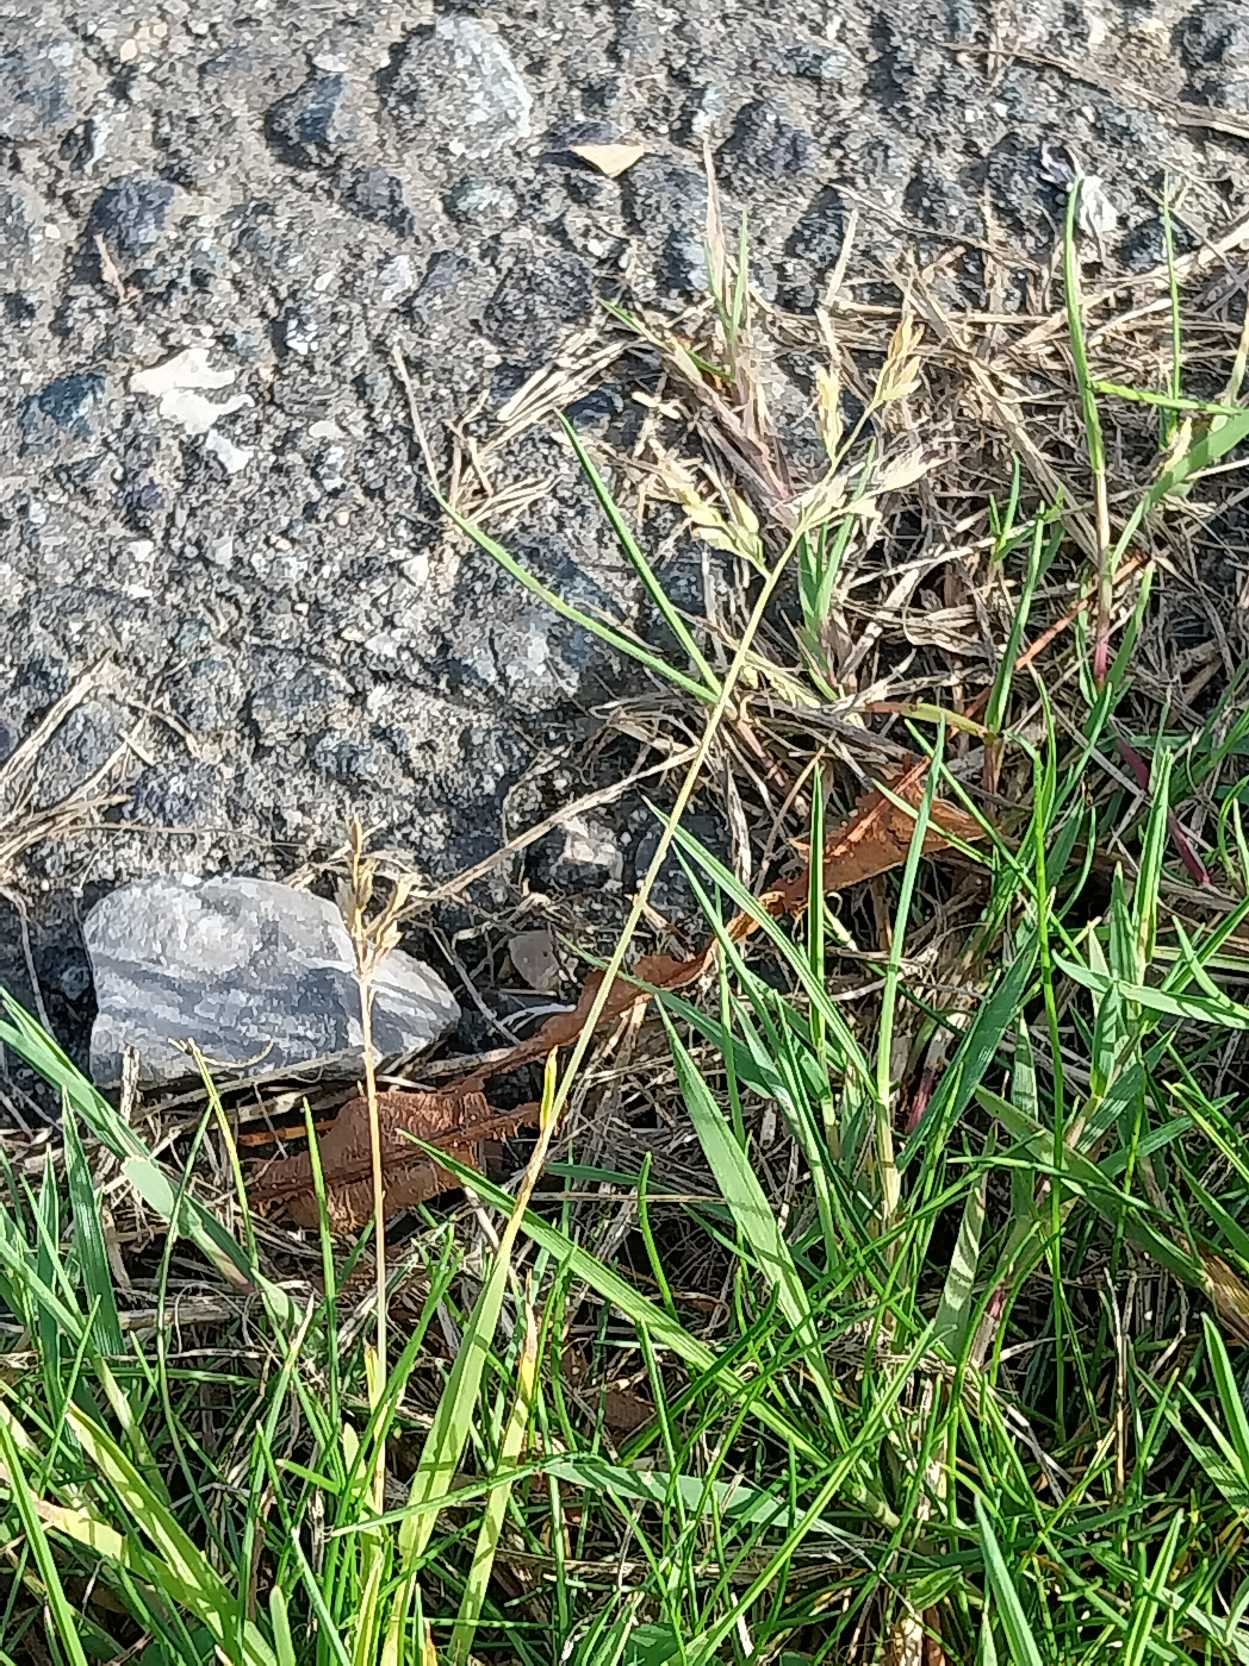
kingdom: Plantae
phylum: Tracheophyta
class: Liliopsida
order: Poales
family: Poaceae
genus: Poa
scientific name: Poa annua
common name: Enårig rapgræs
